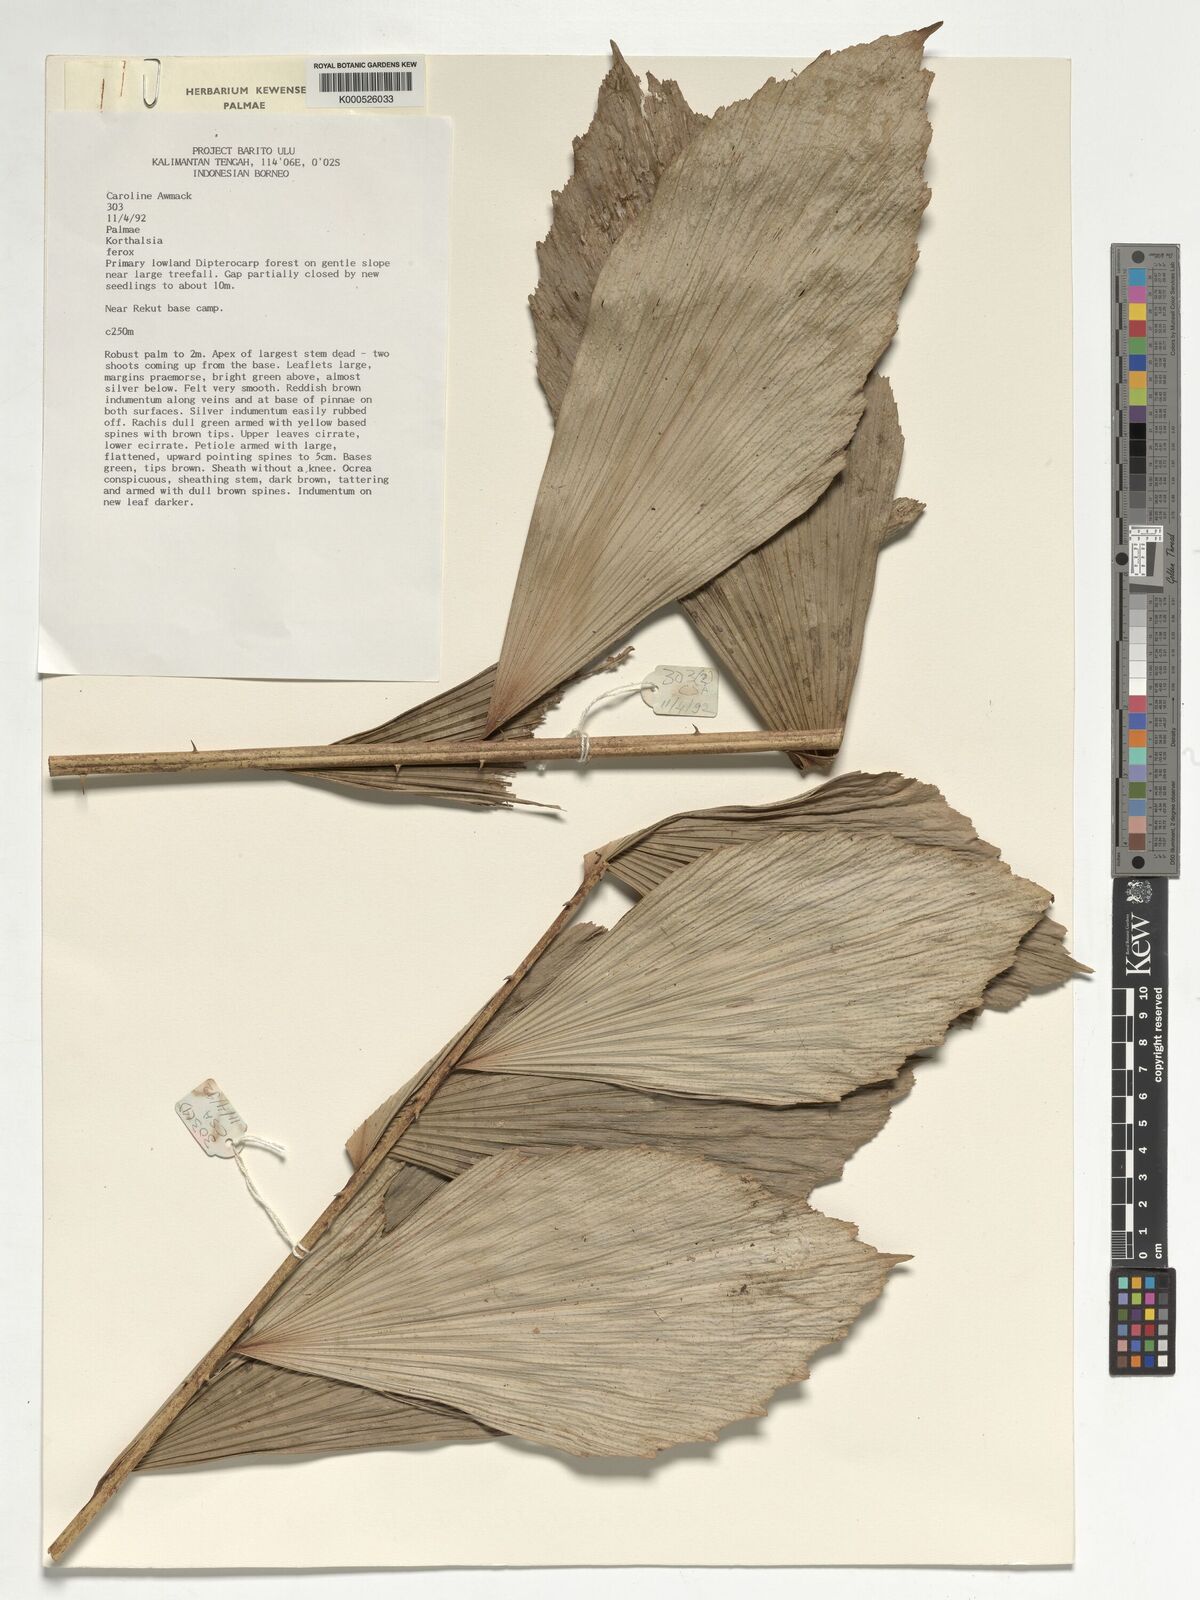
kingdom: Plantae
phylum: Tracheophyta
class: Liliopsida
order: Arecales
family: Arecaceae
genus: Korthalsia
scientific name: Korthalsia ferox
